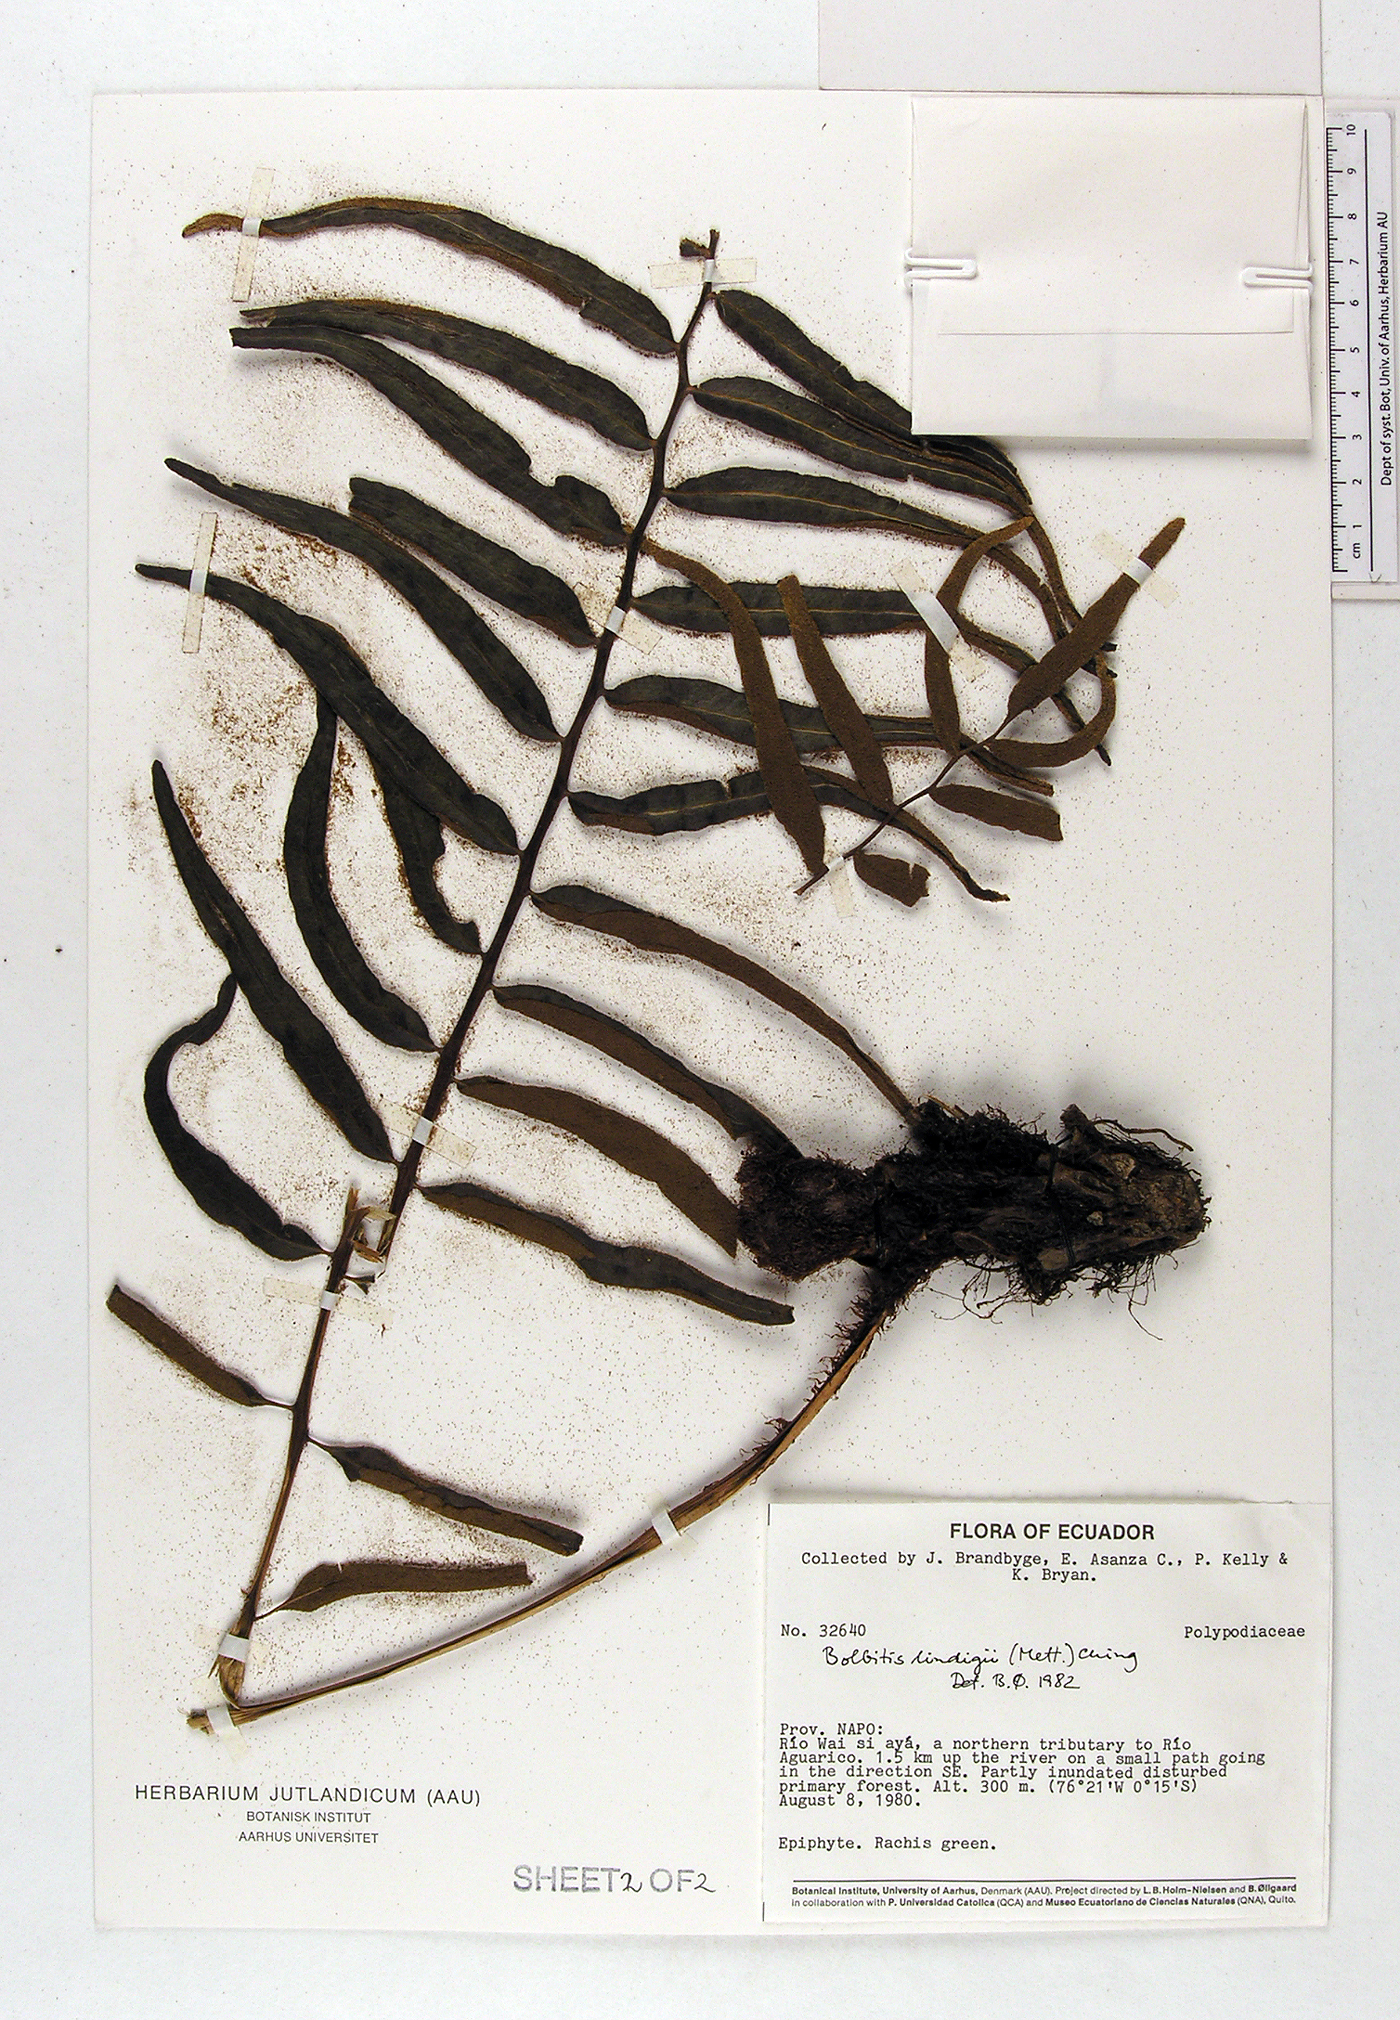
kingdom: Plantae
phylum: Tracheophyta
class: Polypodiopsida
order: Polypodiales
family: Dryopteridaceae
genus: Mickelia
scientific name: Mickelia lindigii
